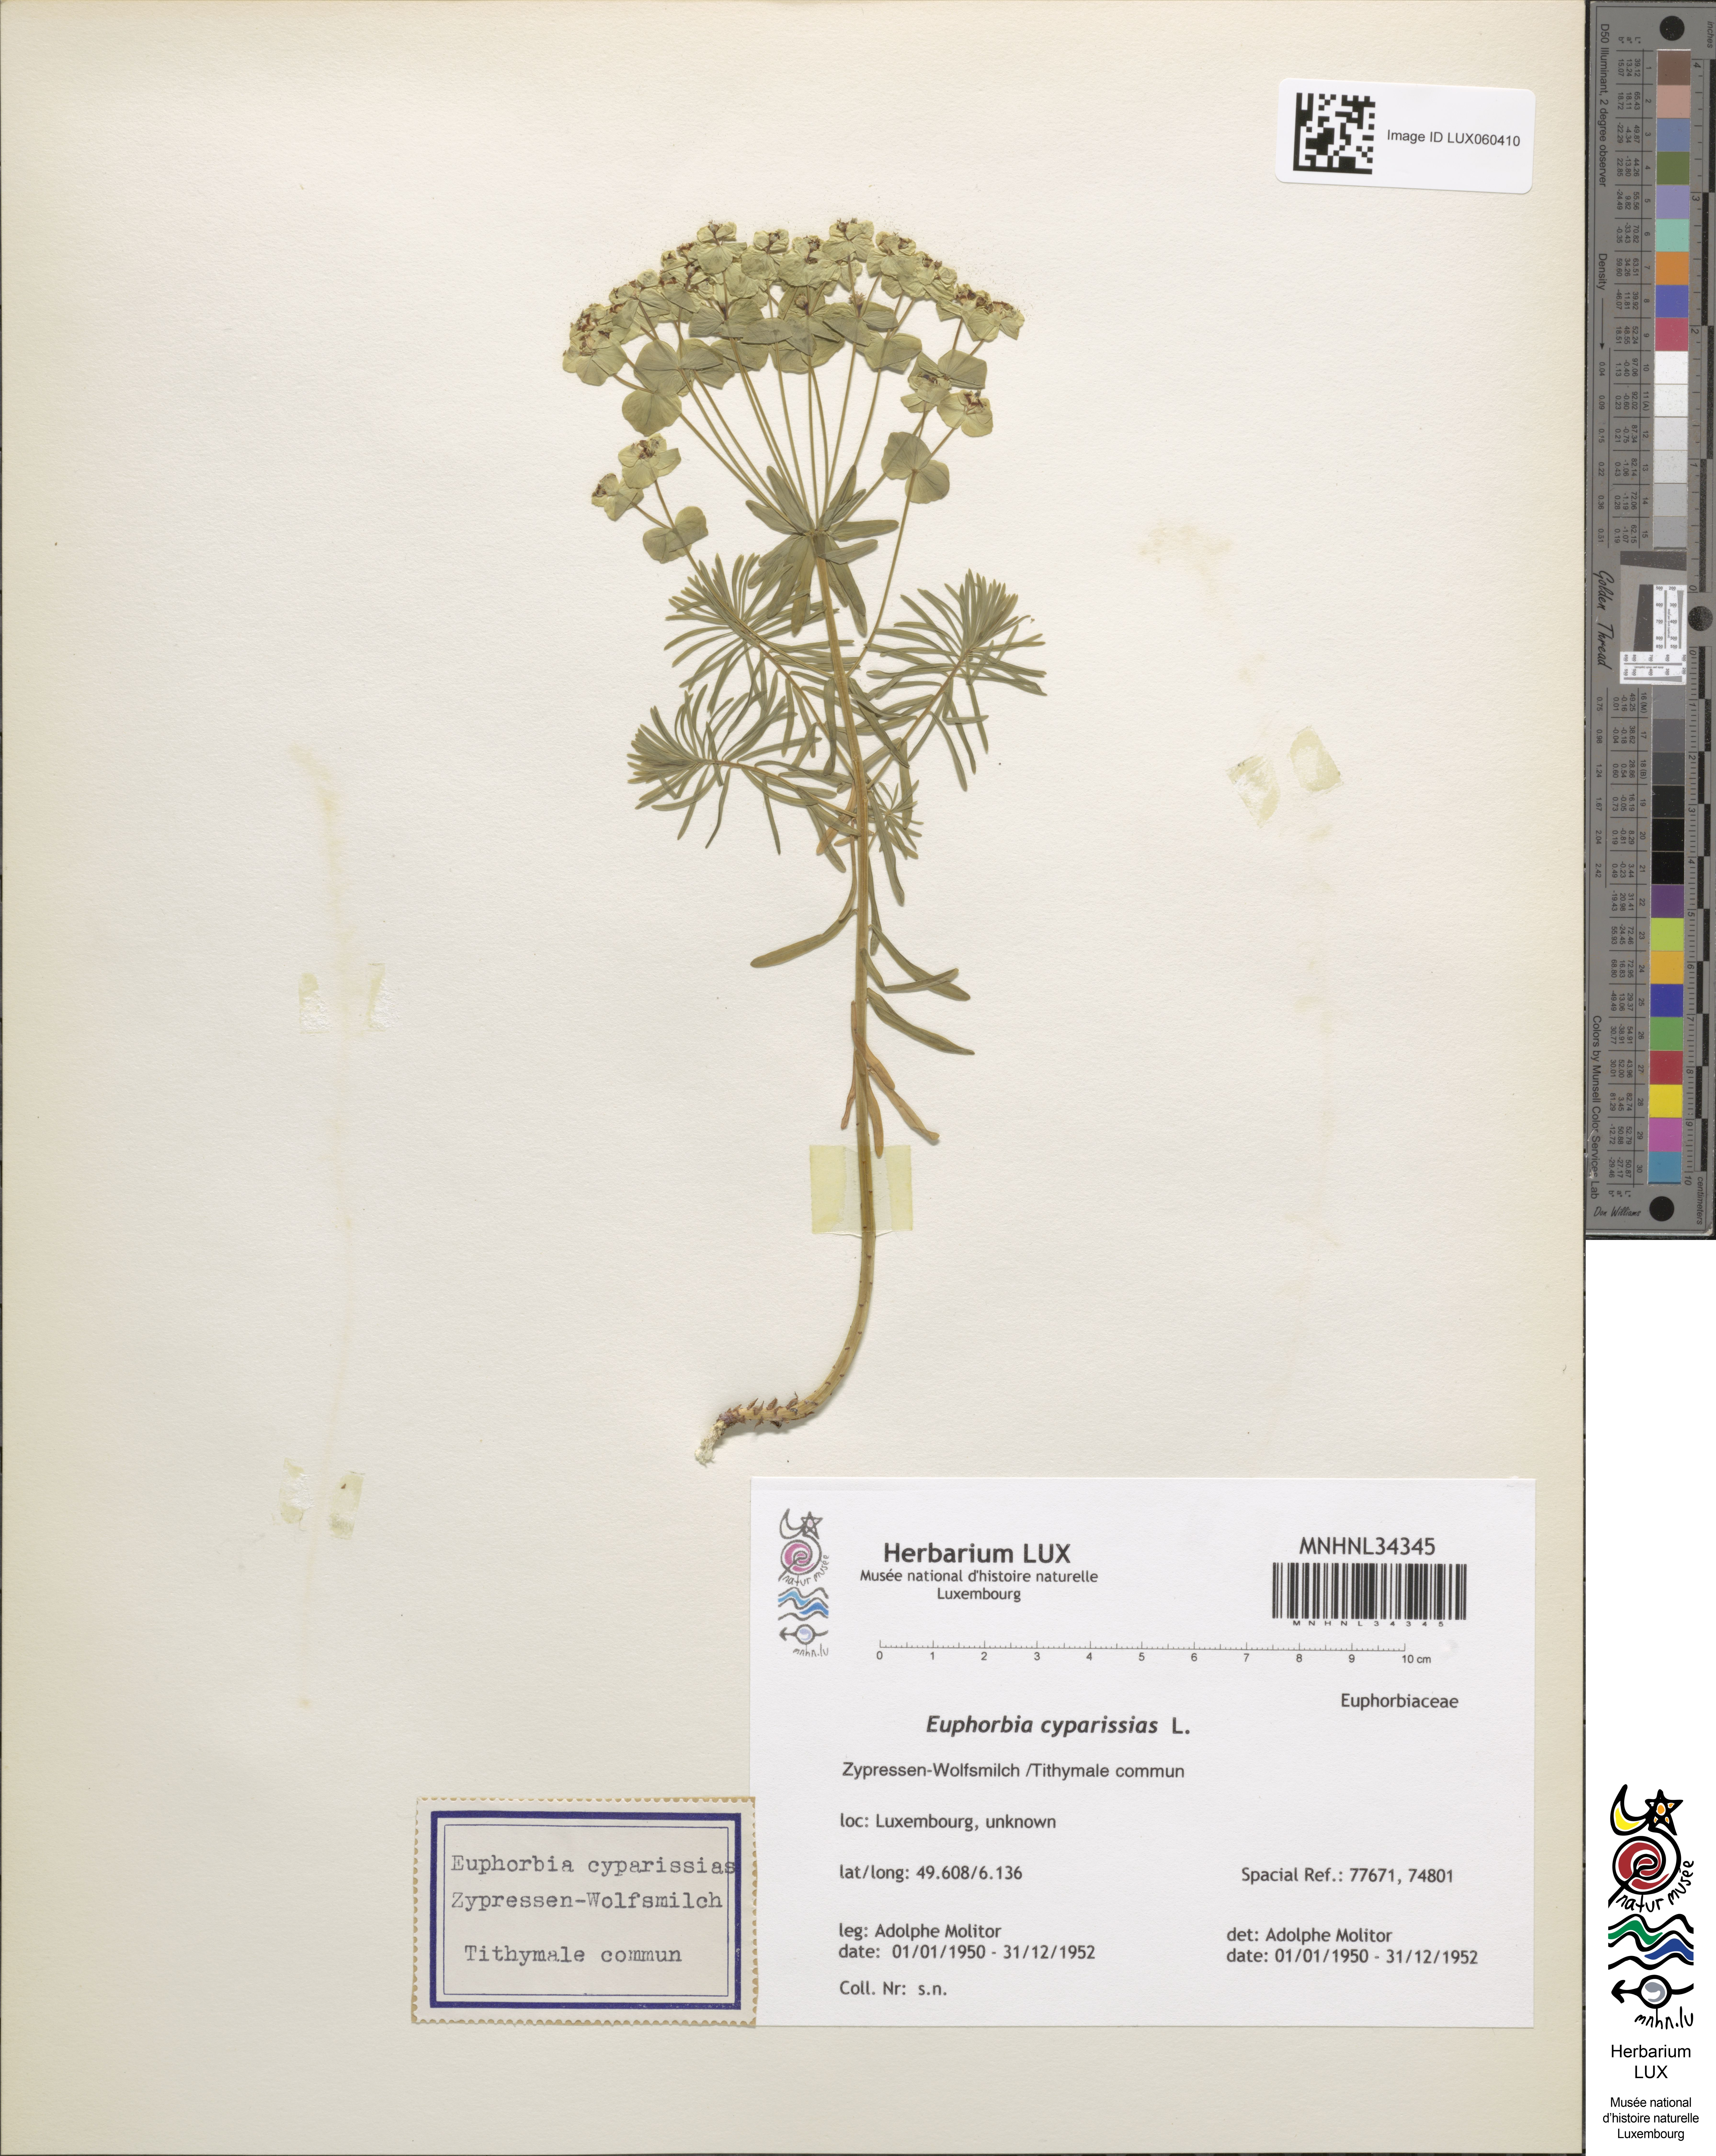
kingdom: Plantae
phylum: Tracheophyta
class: Magnoliopsida
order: Malpighiales
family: Euphorbiaceae
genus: Euphorbia
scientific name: Euphorbia cyparissias
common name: Cypress spurge
